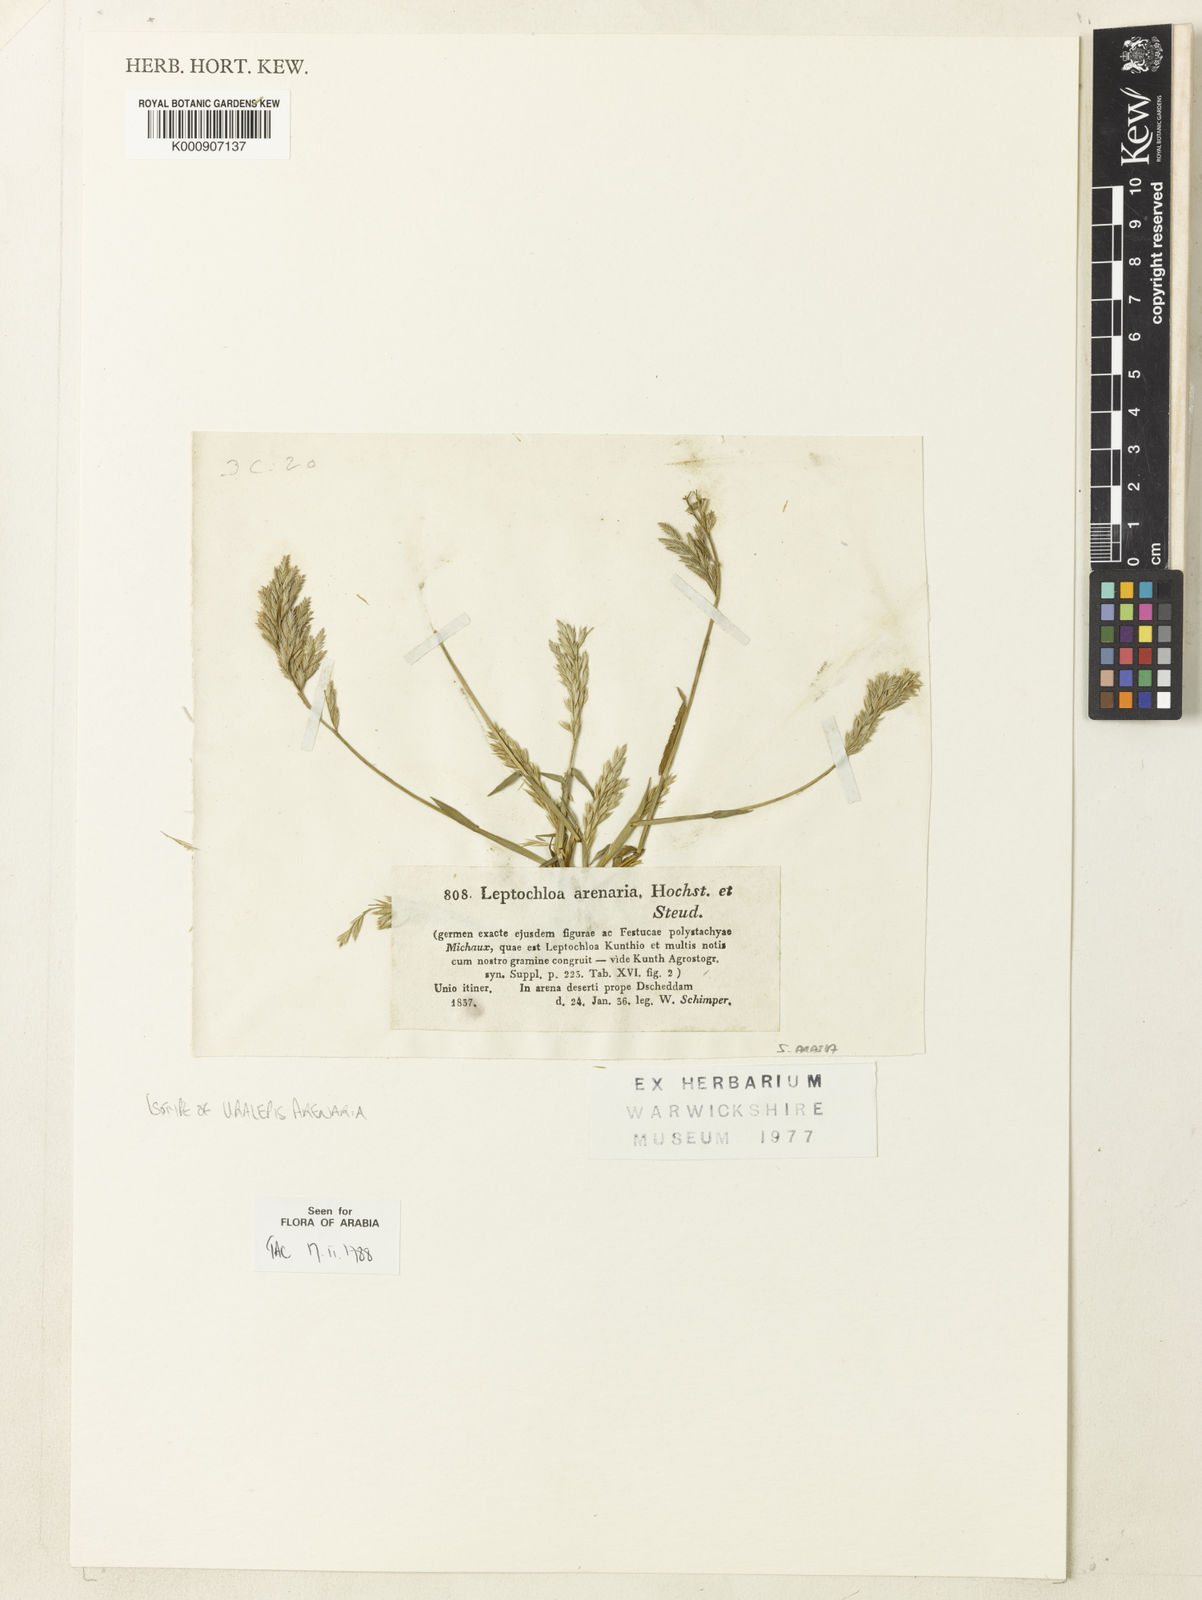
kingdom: Plantae
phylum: Tracheophyta
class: Liliopsida
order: Poales
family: Poaceae
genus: Trichoneura
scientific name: Trichoneura mollis
